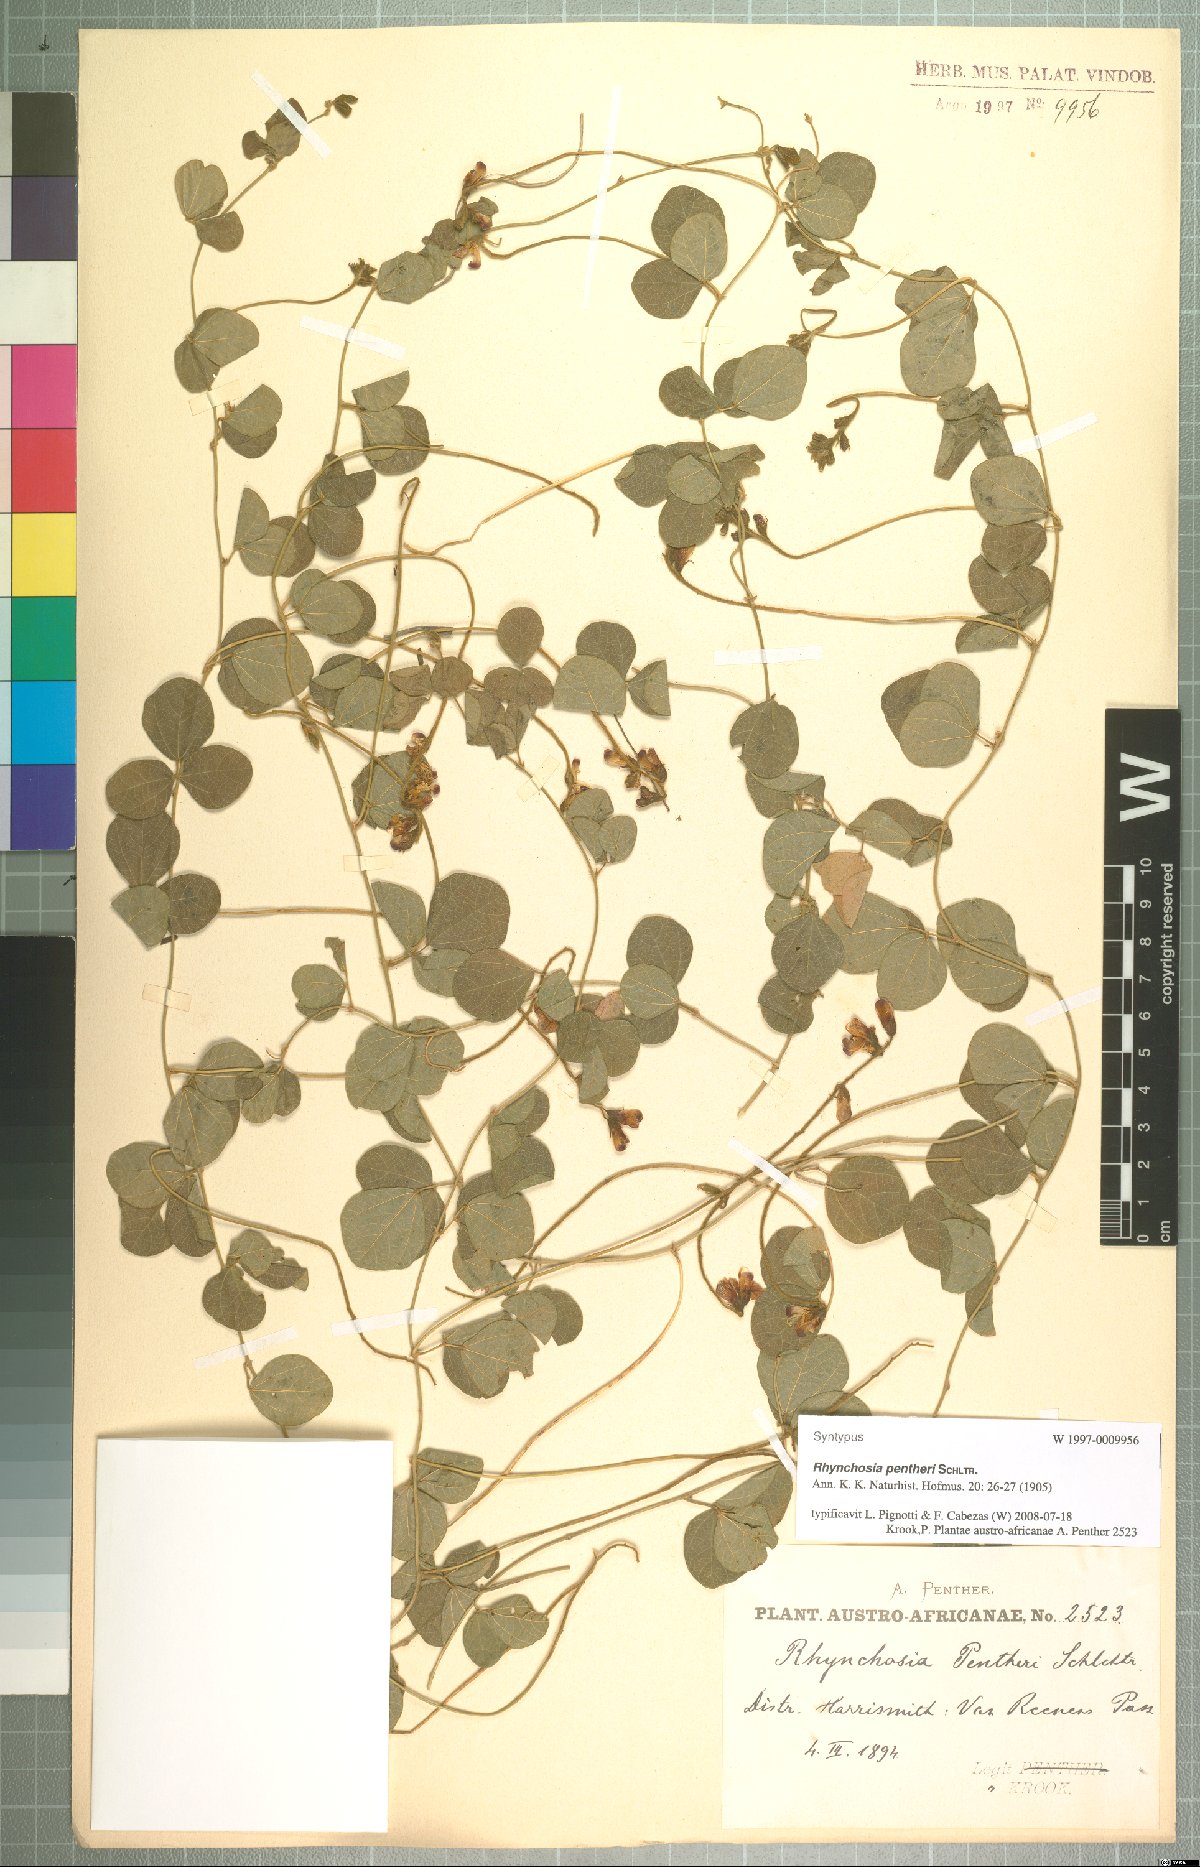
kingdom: Plantae
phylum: Tracheophyta
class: Magnoliopsida
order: Fabales
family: Fabaceae
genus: Rhynchosia
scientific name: Rhynchosia pentheri
